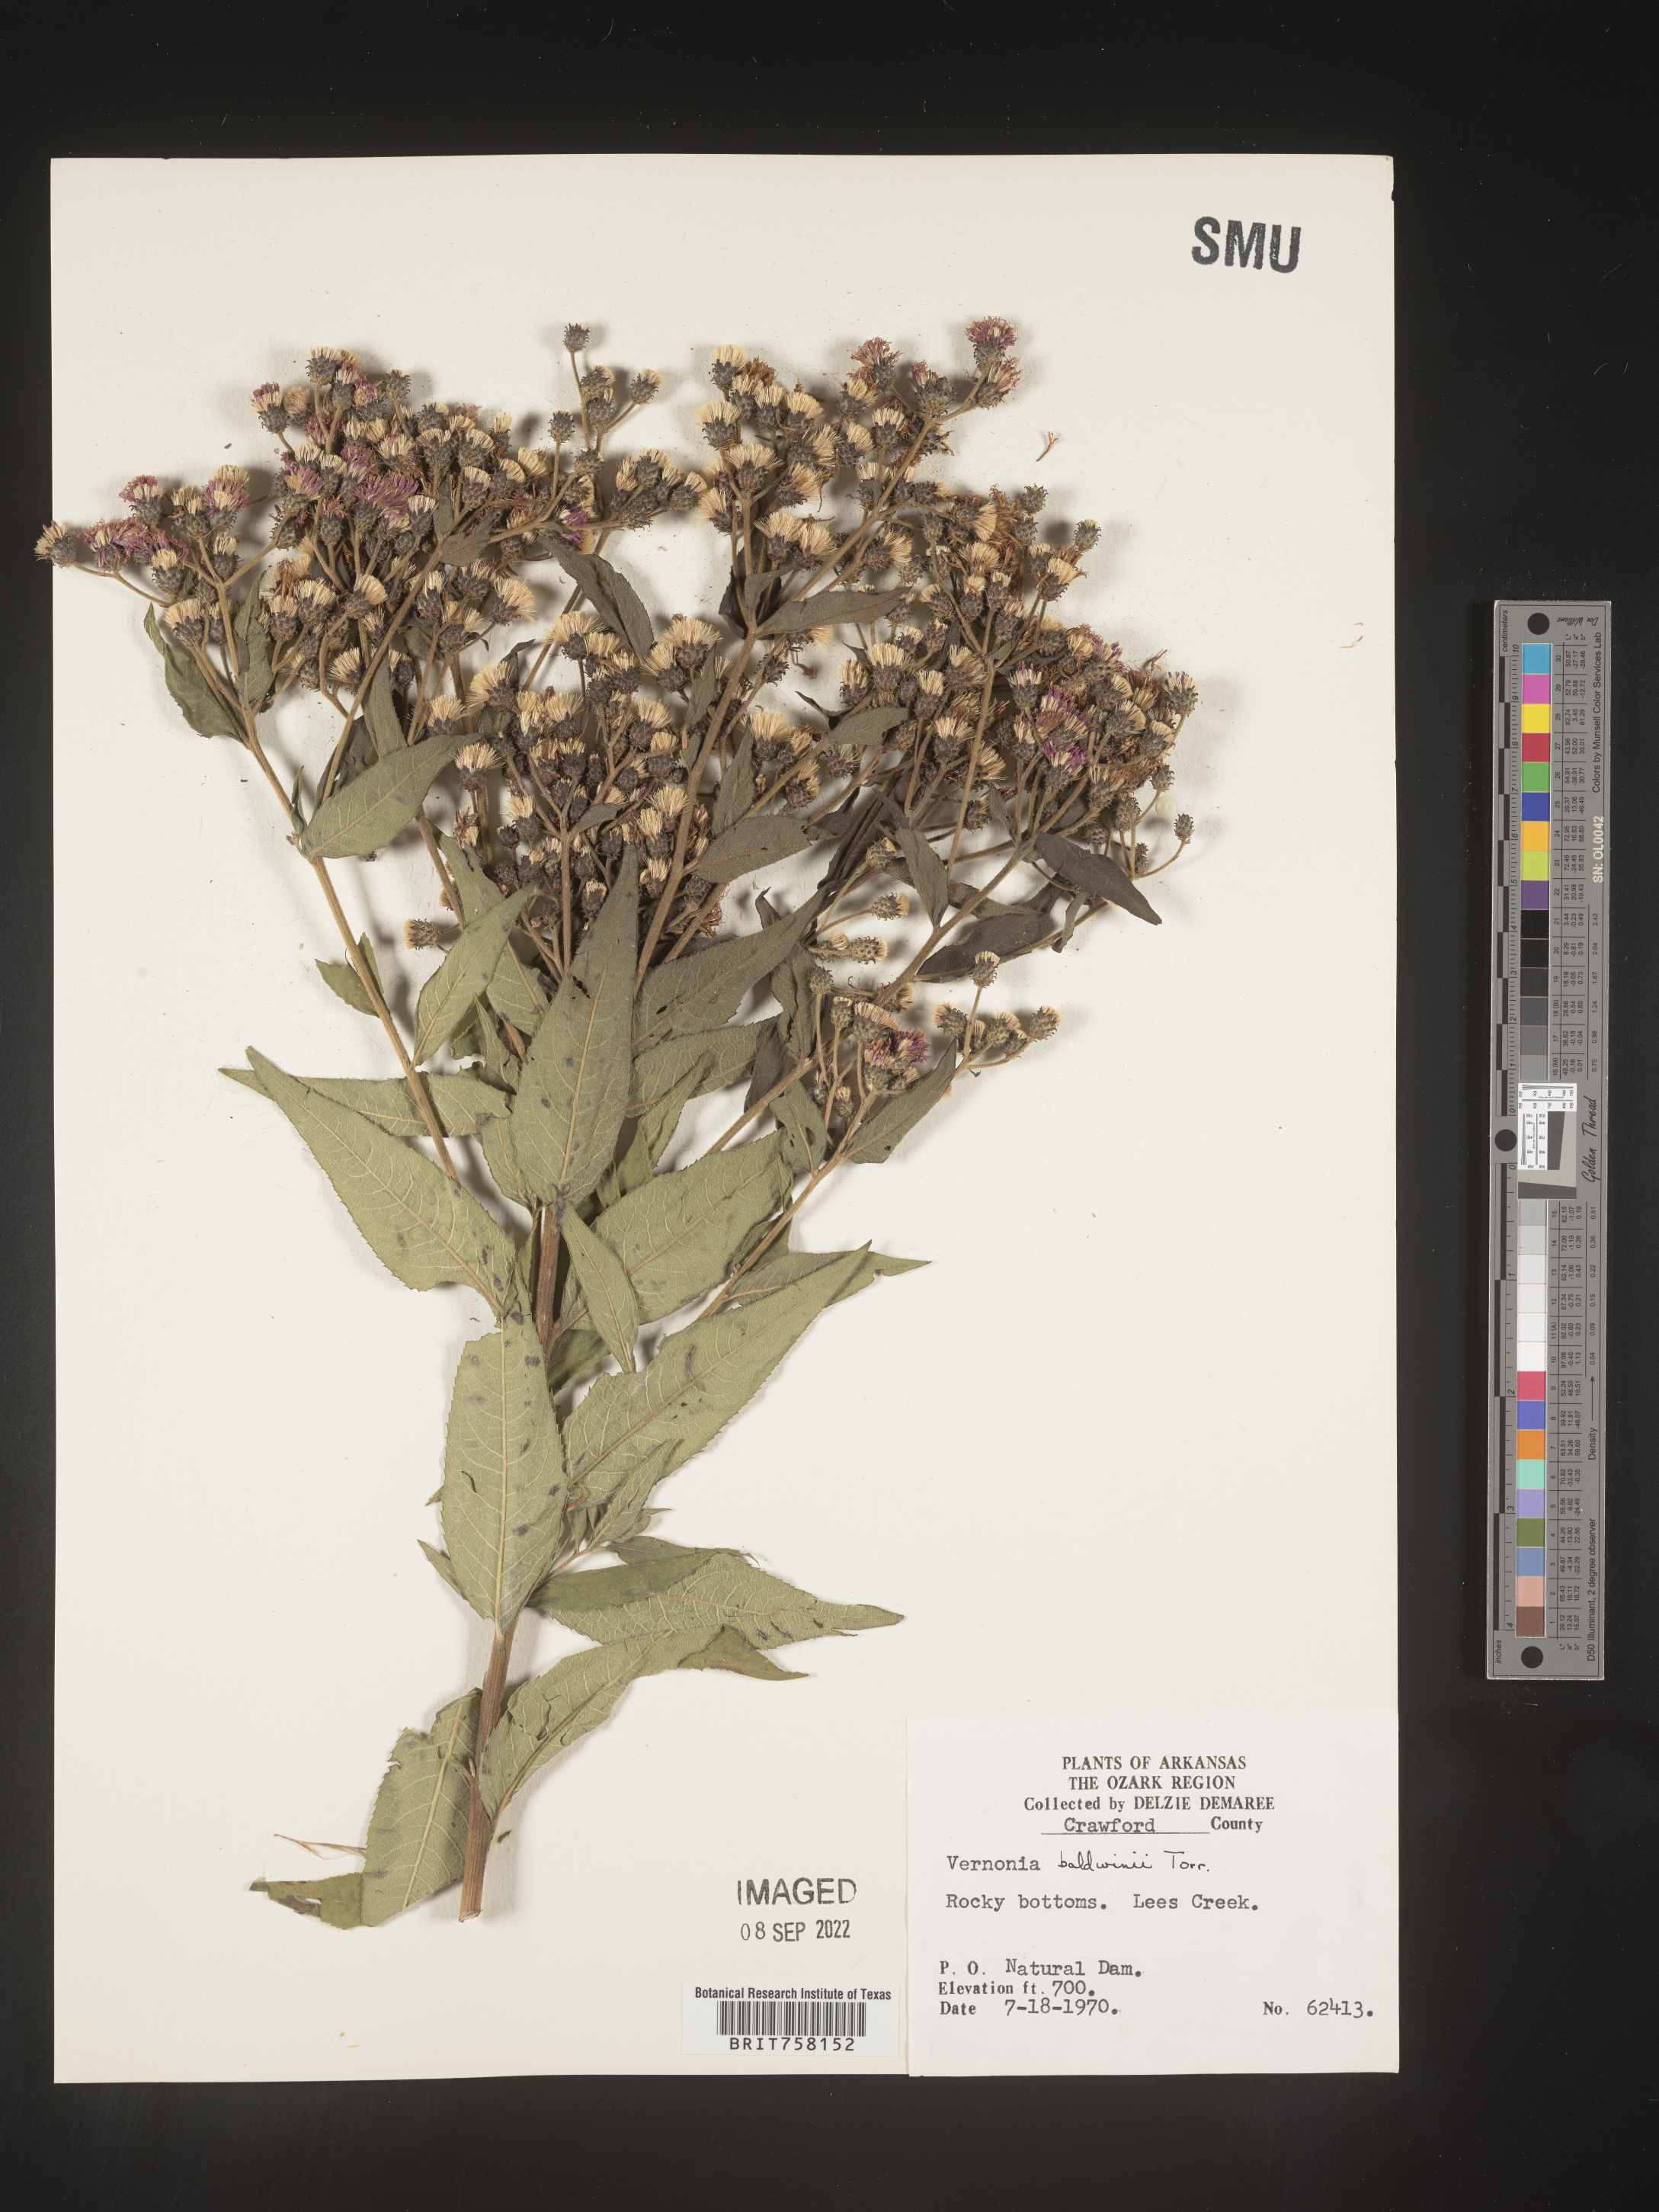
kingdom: Plantae
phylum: Tracheophyta
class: Magnoliopsida
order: Asterales
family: Asteraceae
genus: Vernonia
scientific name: Vernonia baldwinii
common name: Western ironweed
